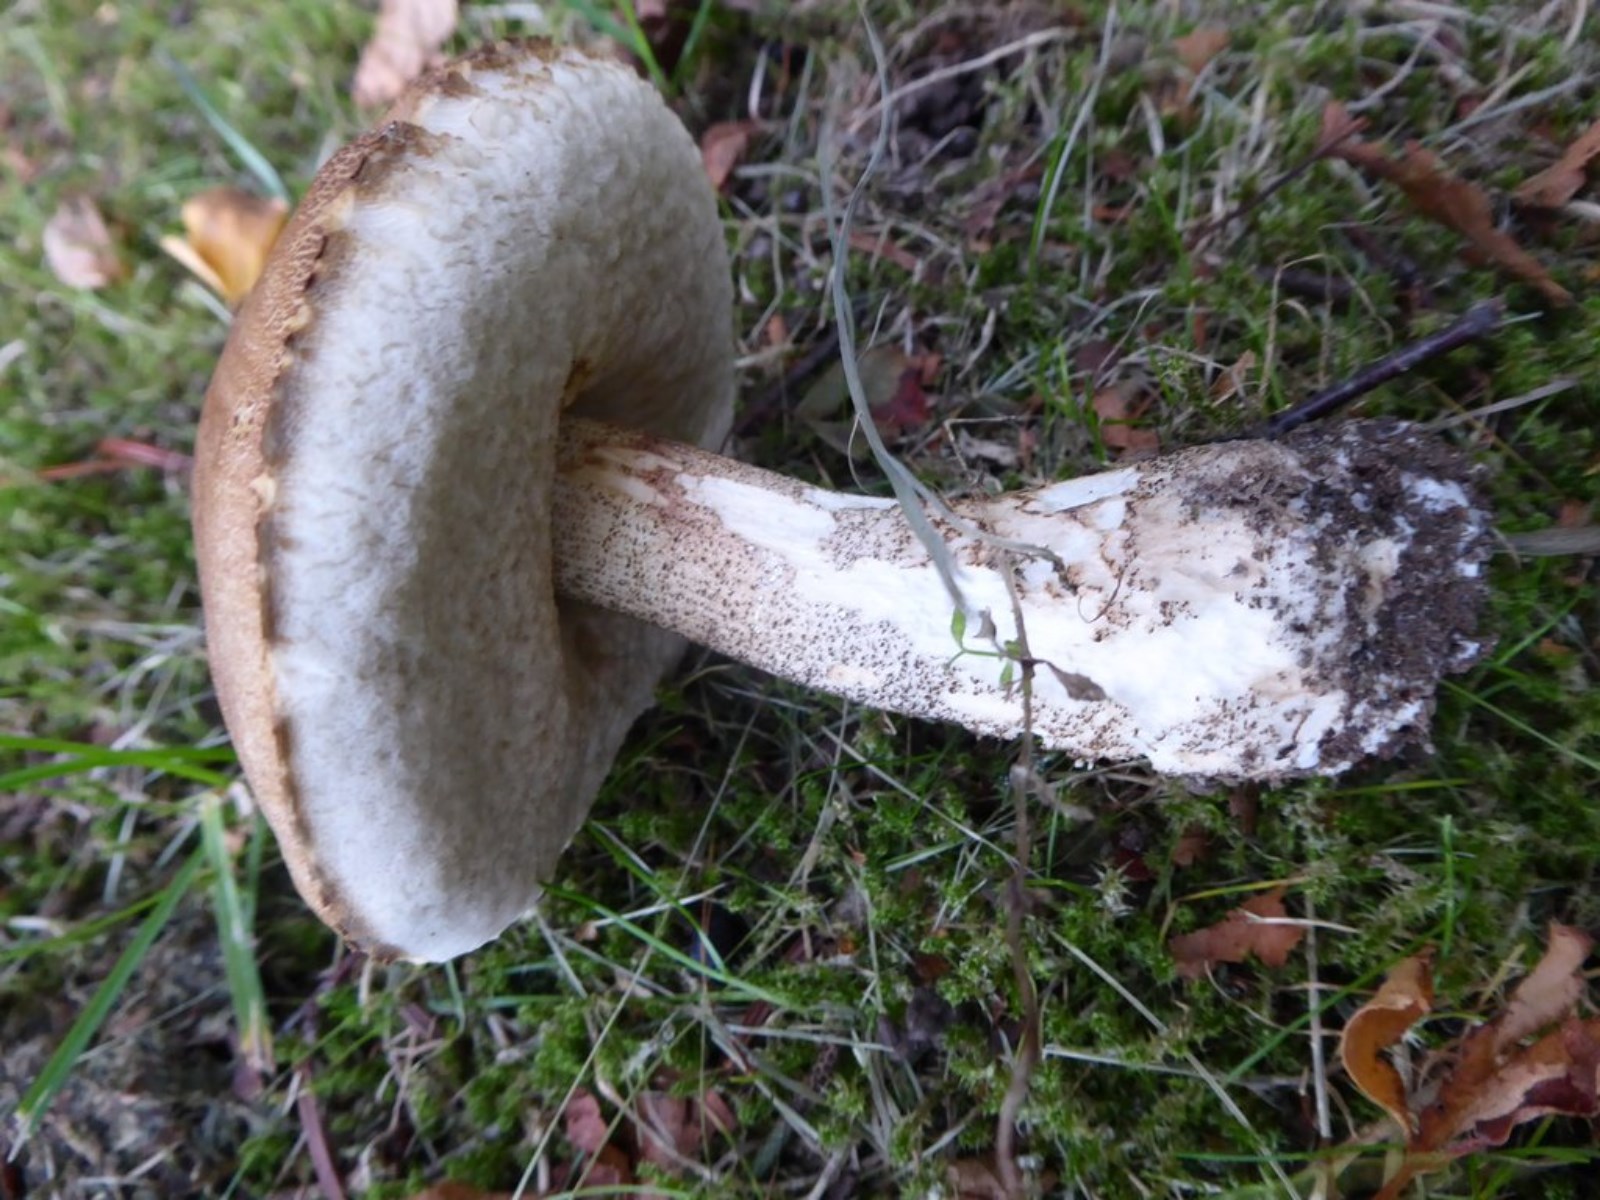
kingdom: Fungi
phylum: Basidiomycota
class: Agaricomycetes
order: Boletales
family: Boletaceae
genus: Leccinum
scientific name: Leccinum
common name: skælrørhat
